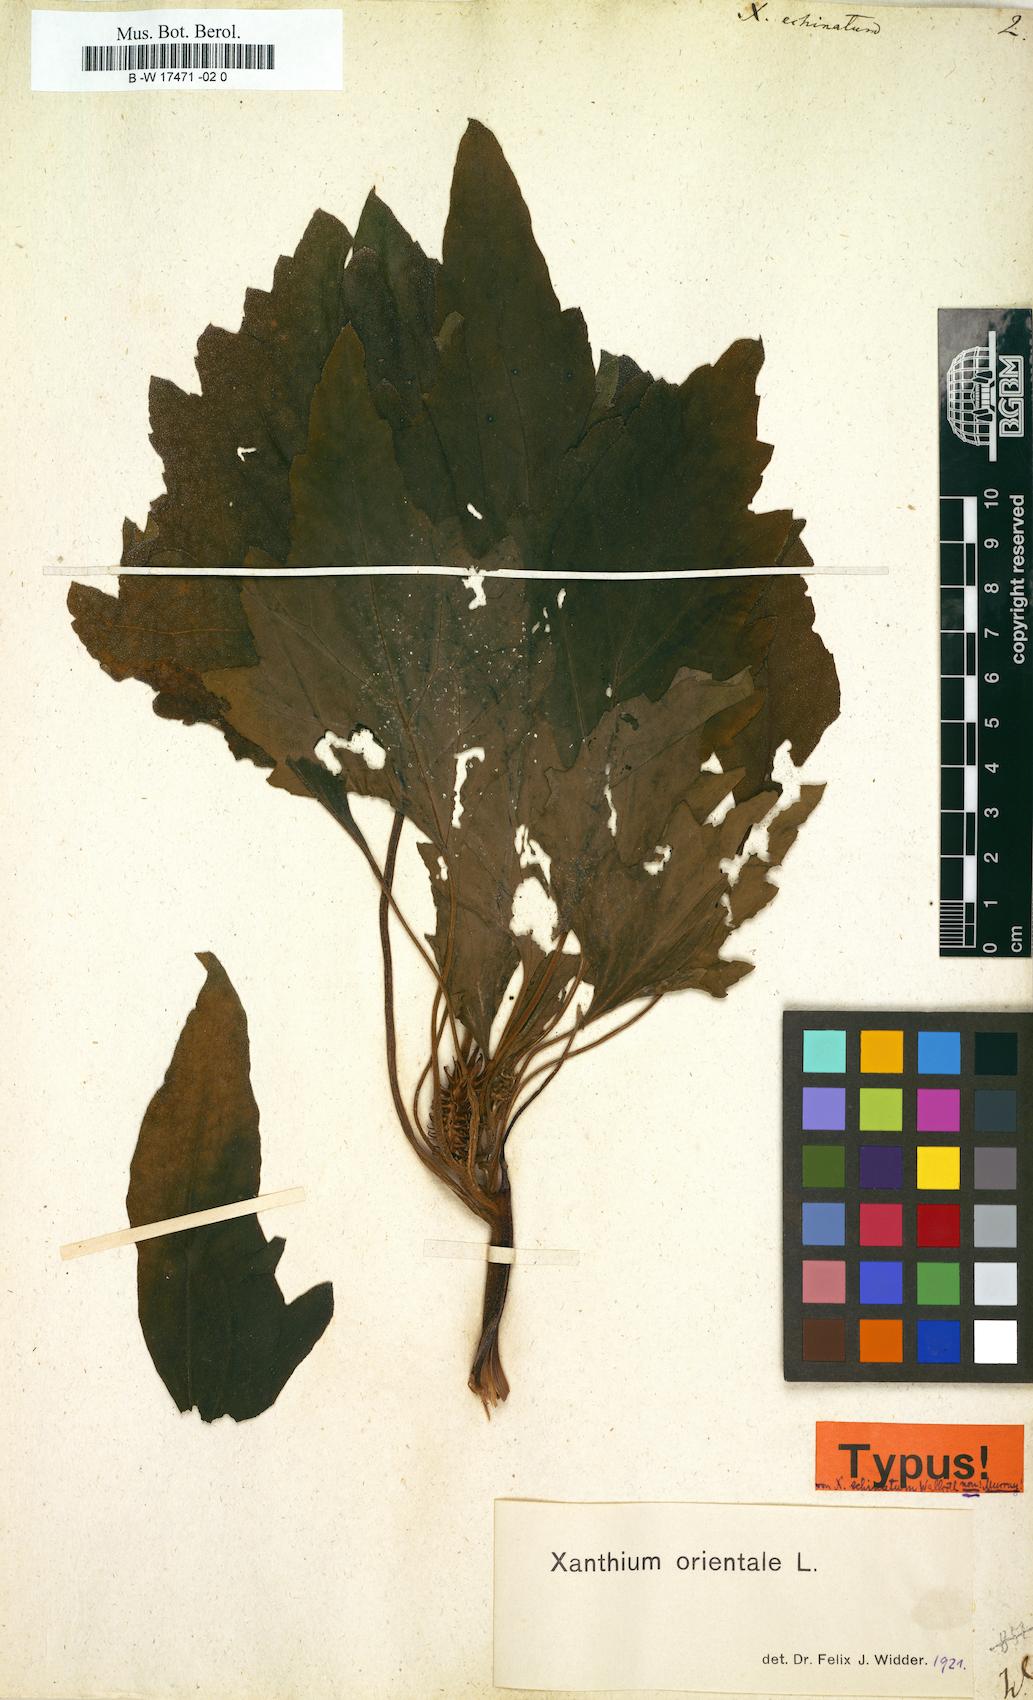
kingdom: Plantae
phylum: Tracheophyta
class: Magnoliopsida
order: Asterales
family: Asteraceae
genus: Xanthium
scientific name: Xanthium orientale
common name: Californian burr
